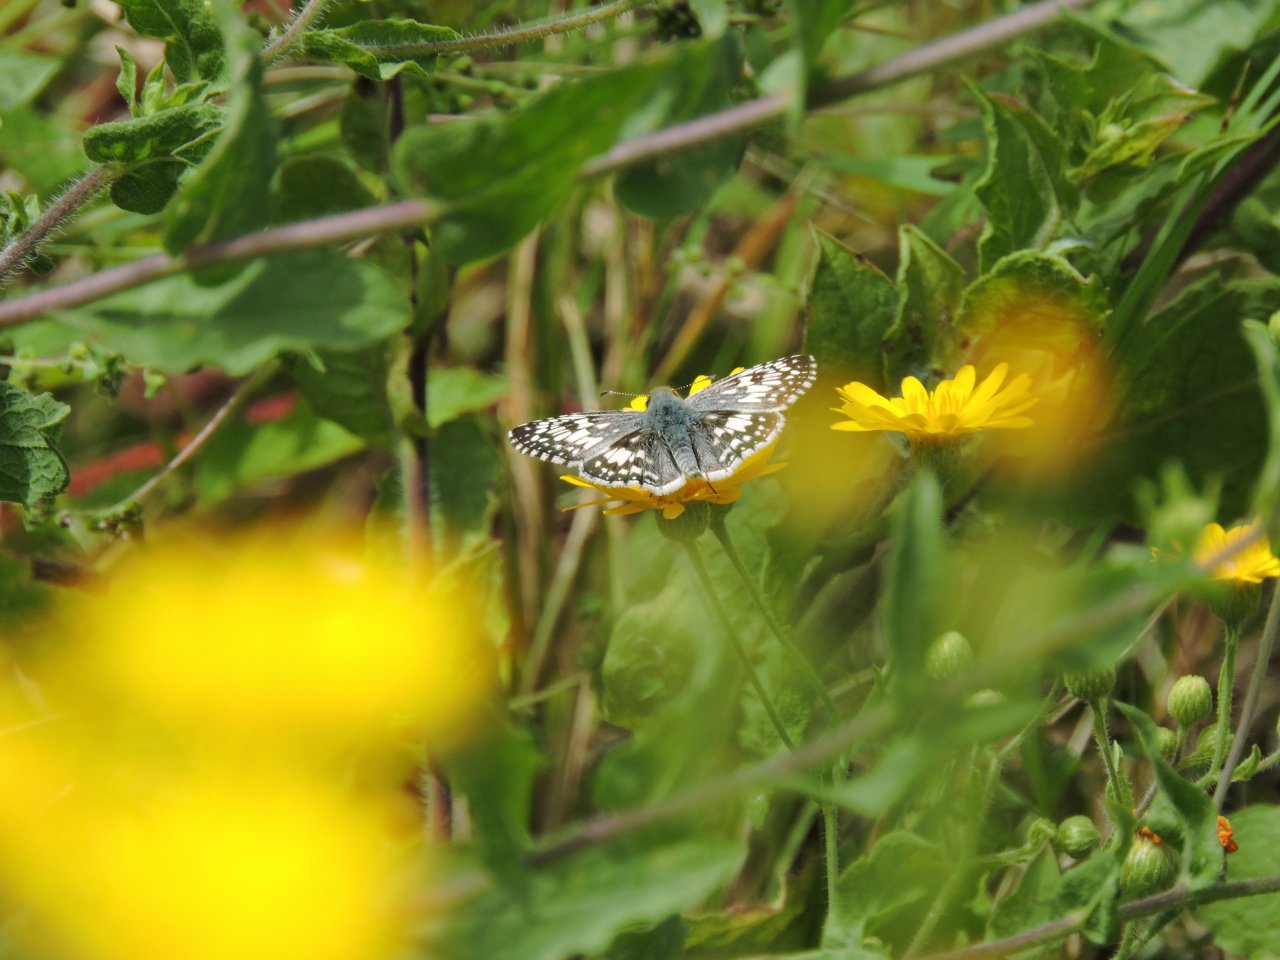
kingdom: Animalia
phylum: Arthropoda
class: Insecta
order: Lepidoptera
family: Hesperiidae
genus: Pyrgus
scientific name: Pyrgus
